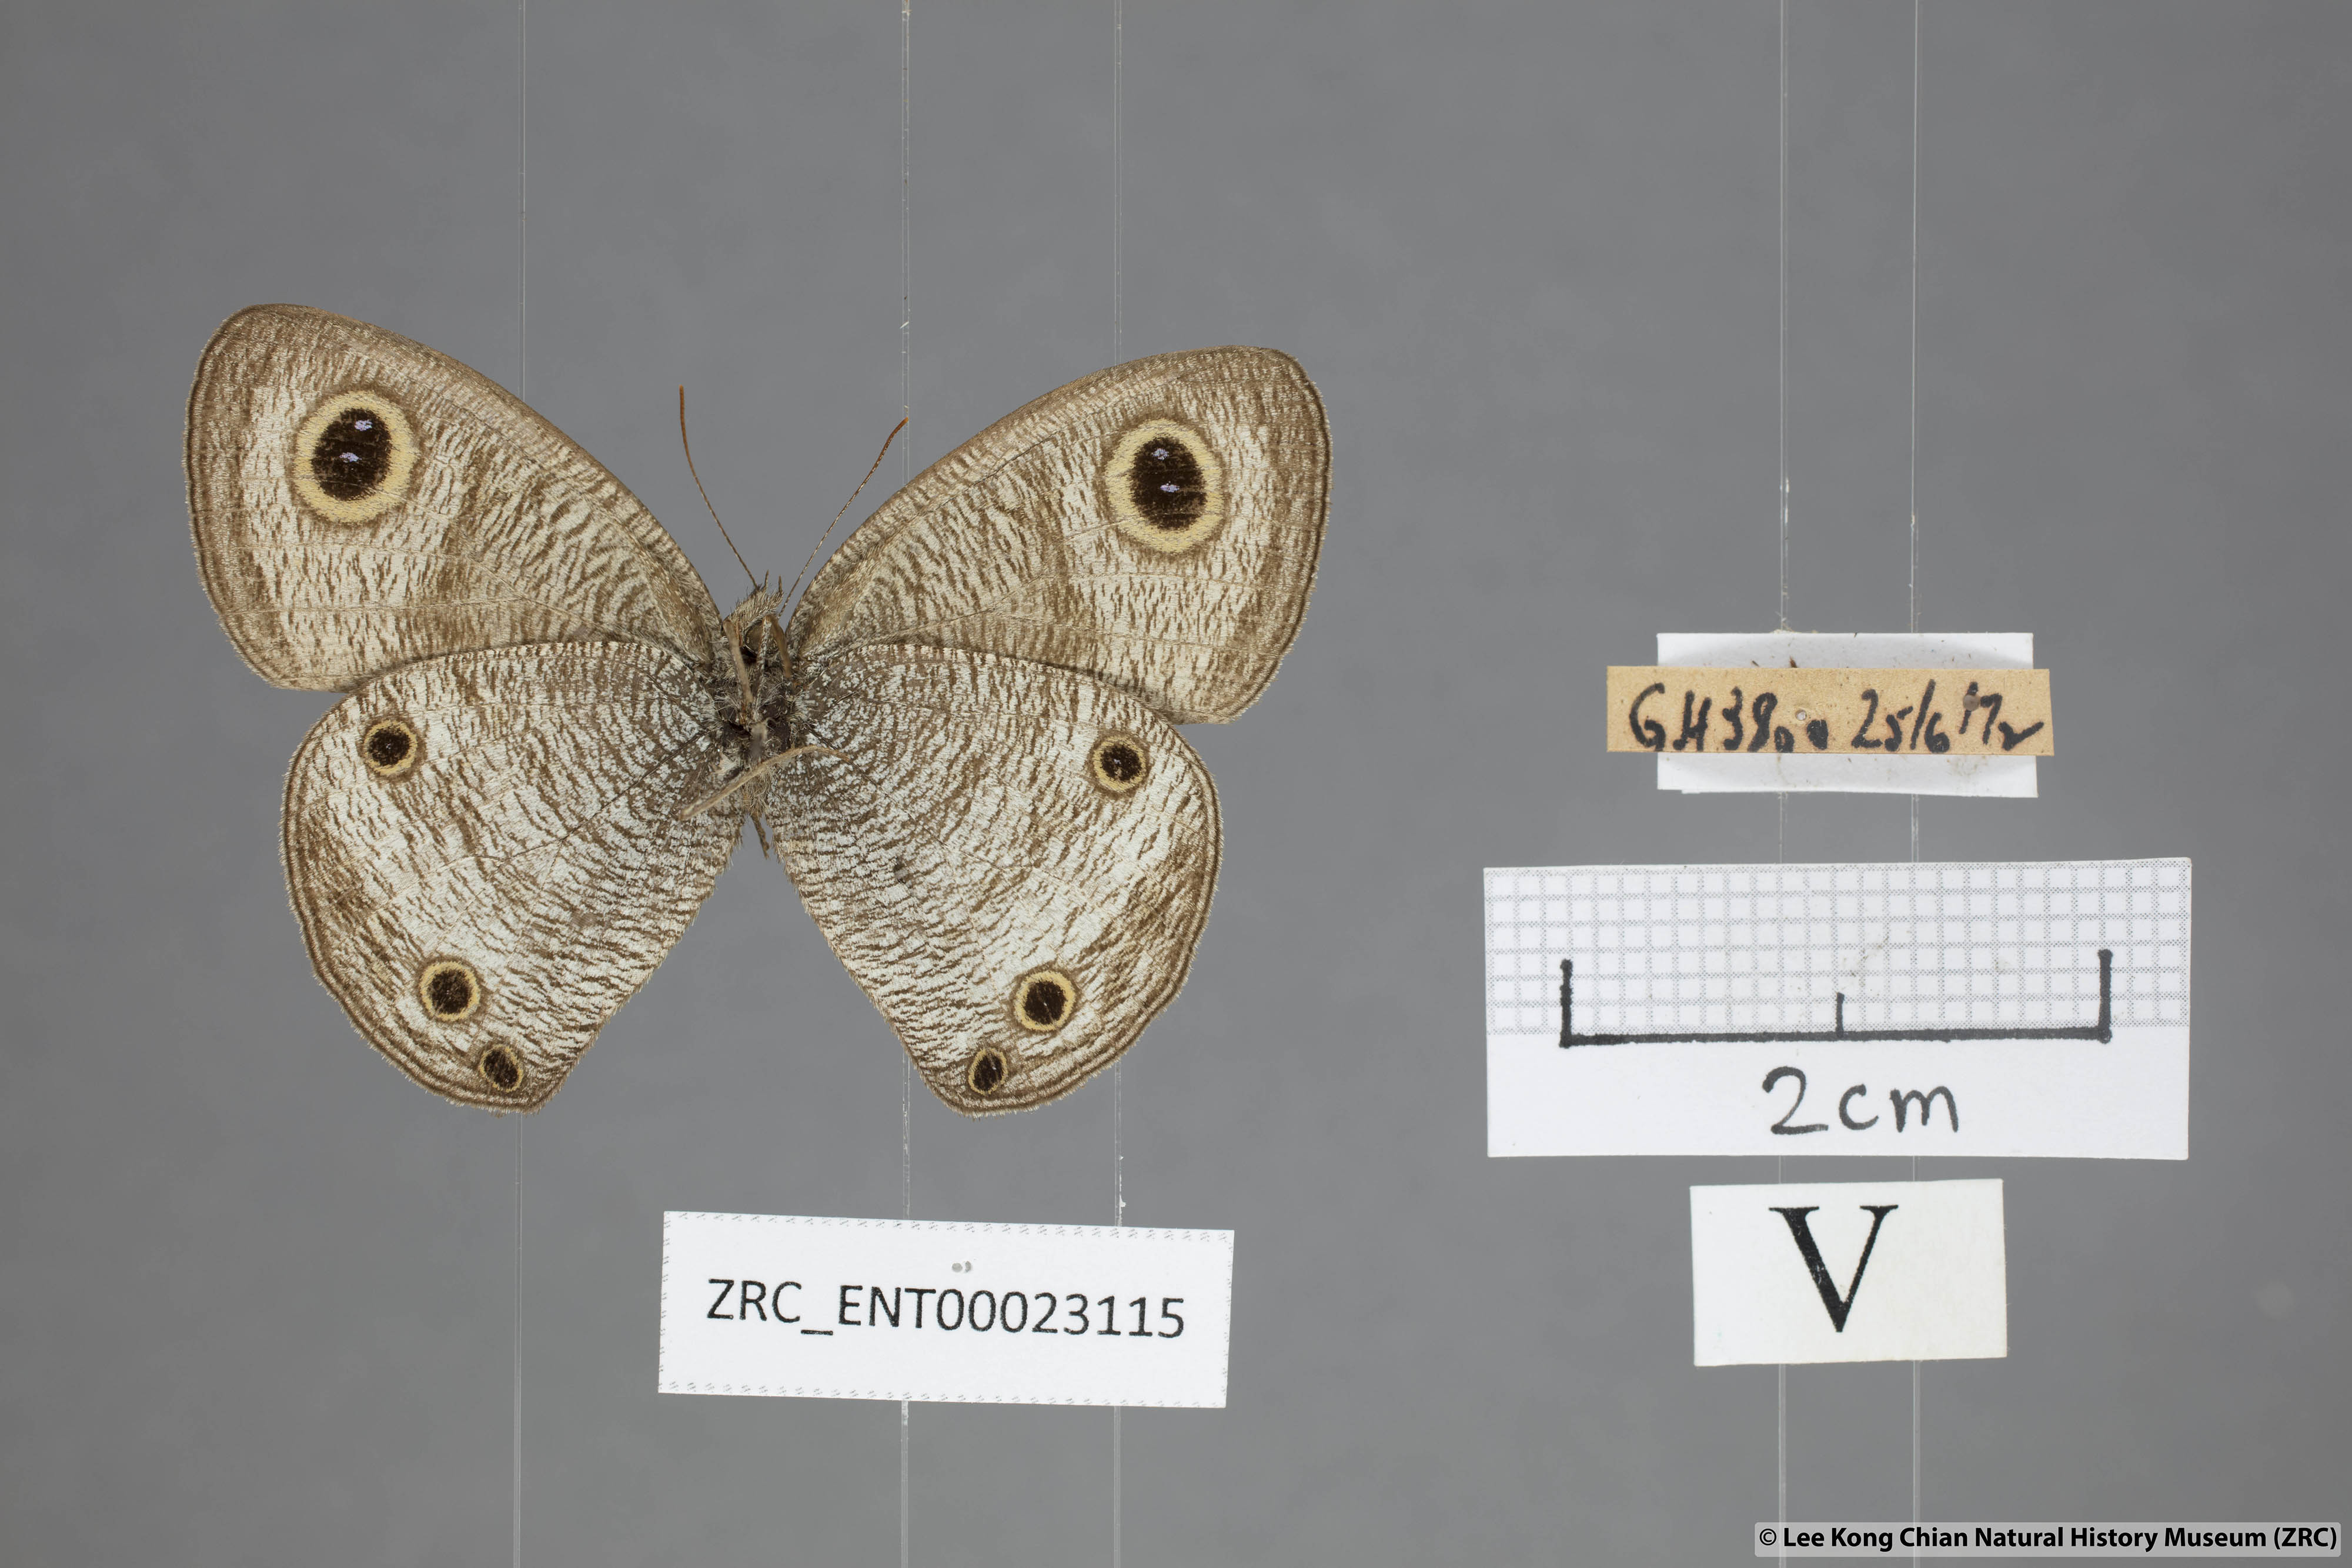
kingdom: Animalia
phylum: Arthropoda
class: Insecta
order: Lepidoptera
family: Nymphalidae
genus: Ypthima
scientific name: Ypthima pandocus
